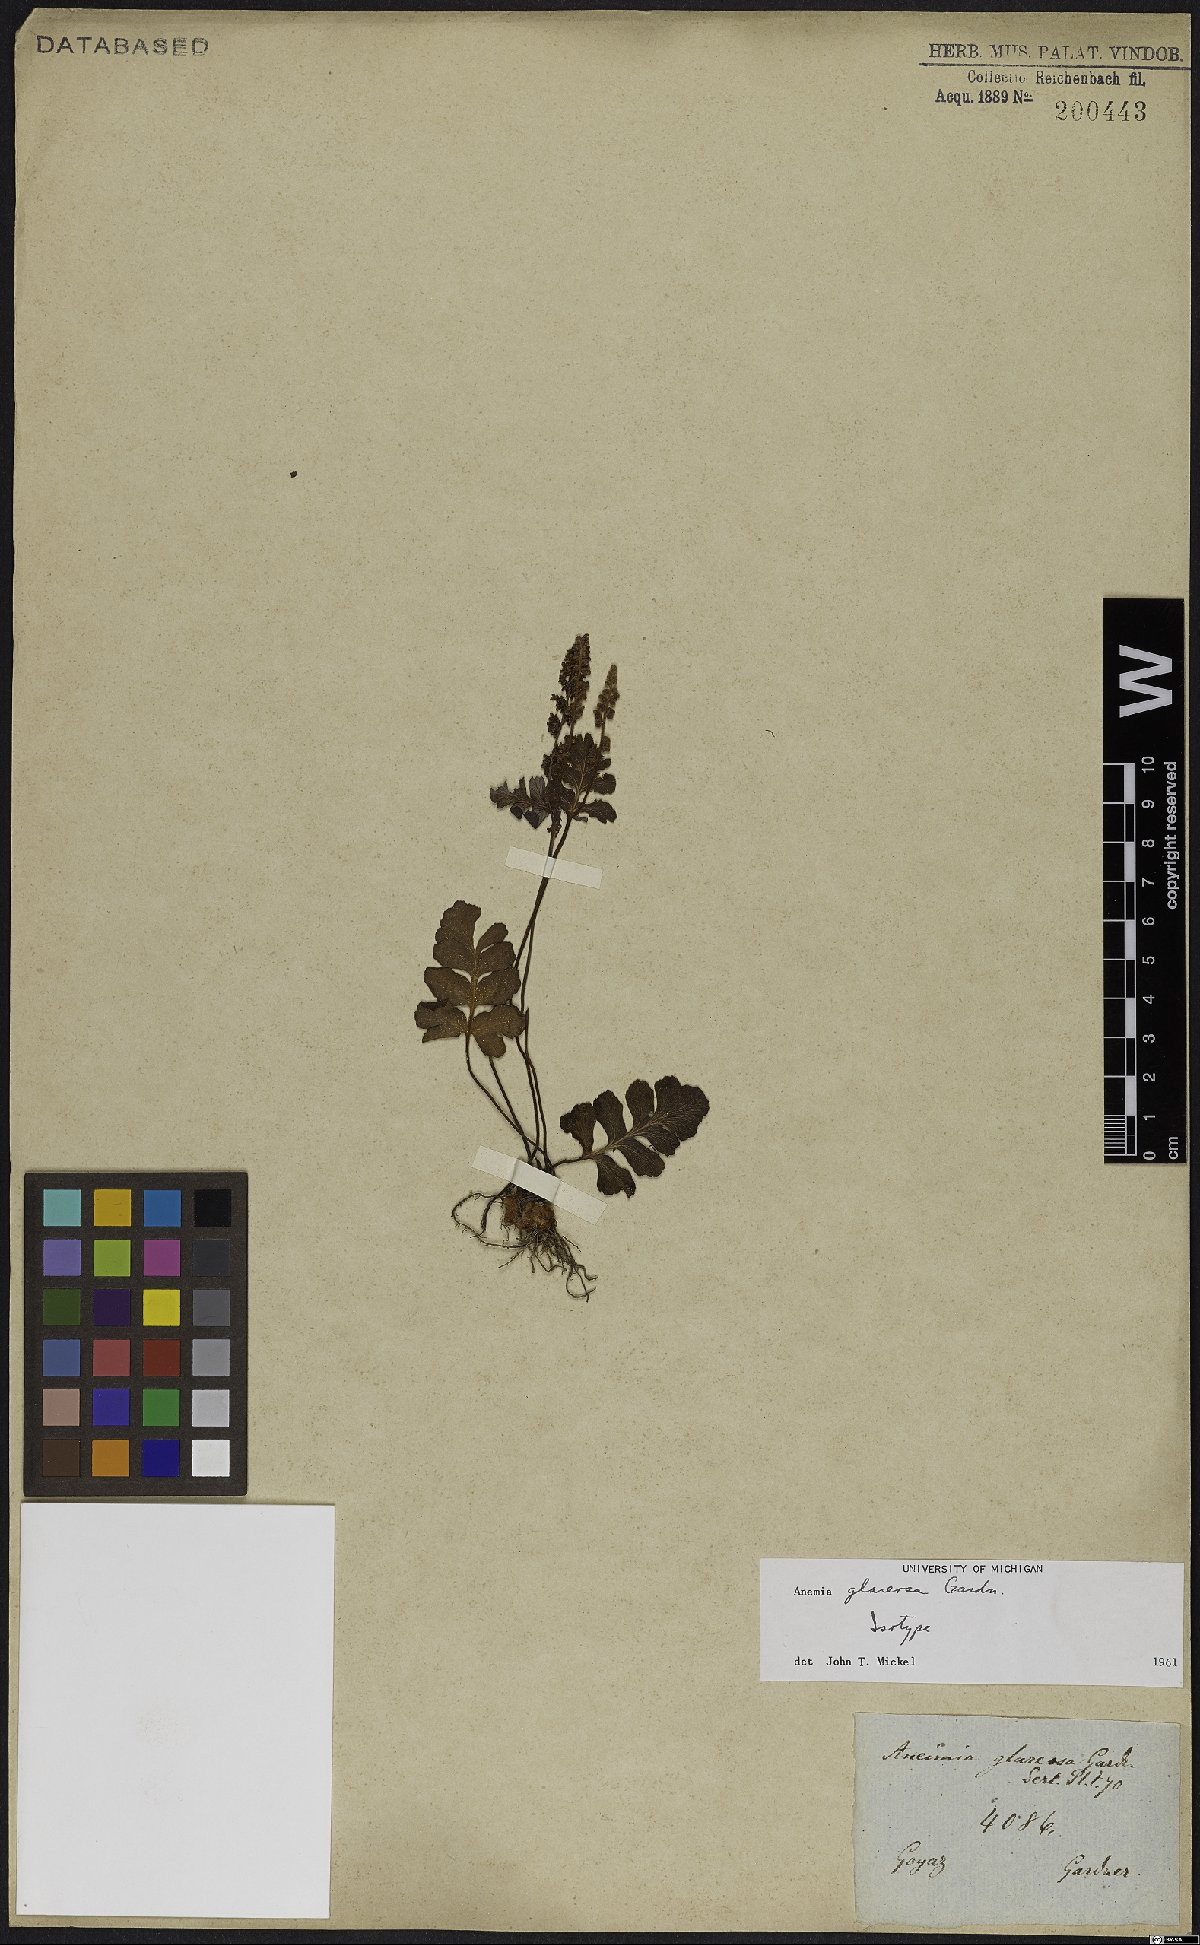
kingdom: Plantae
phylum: Tracheophyta
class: Polypodiopsida
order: Schizaeales
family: Anemiaceae
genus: Anemia
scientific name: Anemia glareosa
